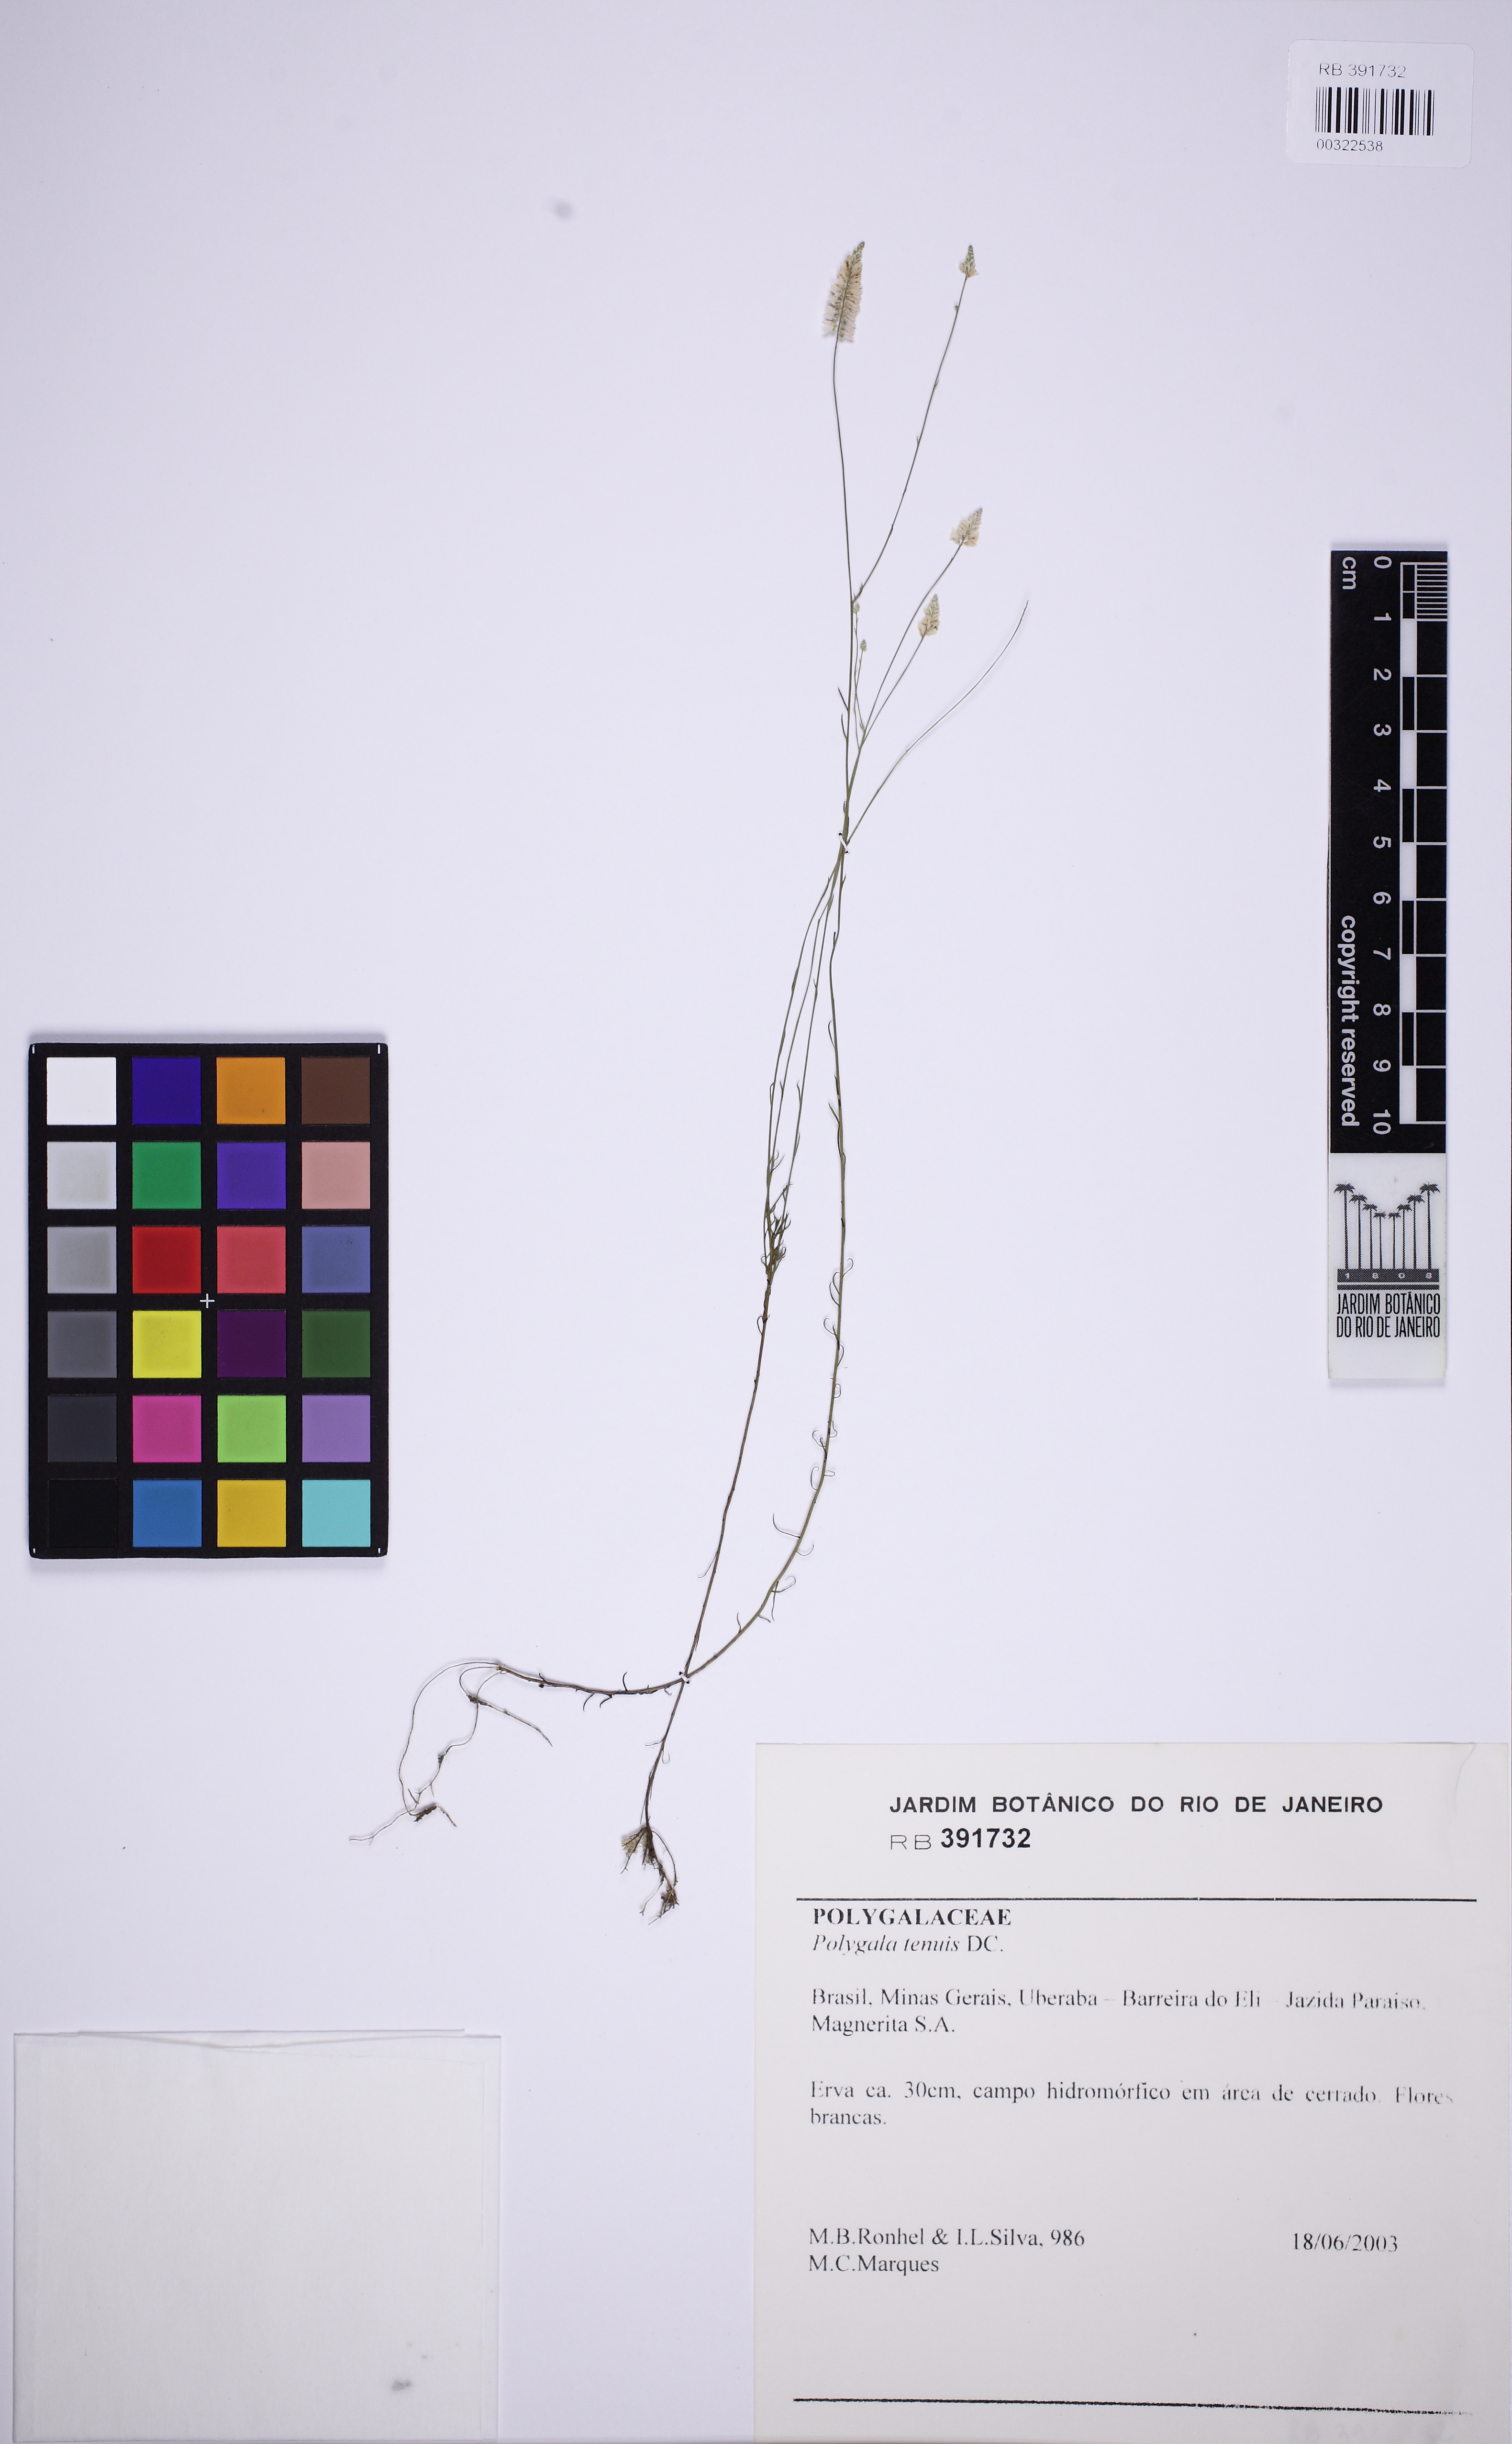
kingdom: Plantae
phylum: Tracheophyta
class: Magnoliopsida
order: Fabales
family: Polygalaceae
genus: Polygala
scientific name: Polygala tenuis
